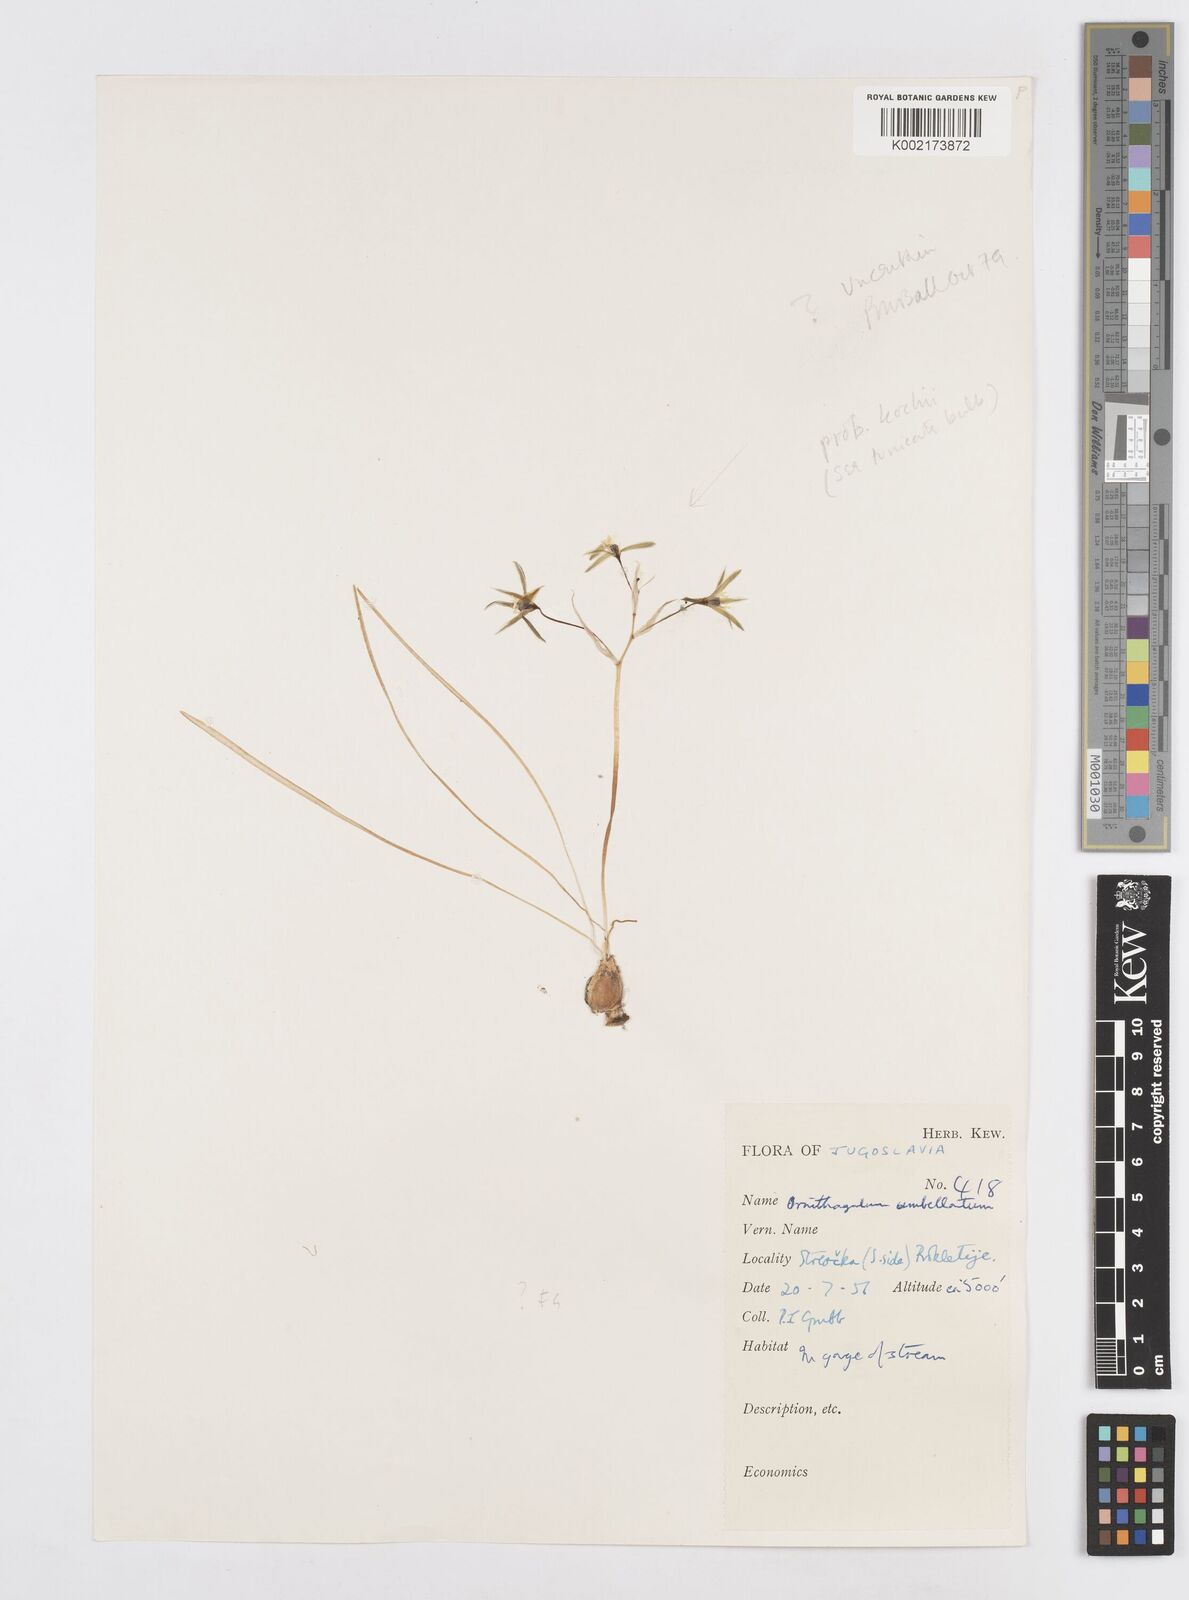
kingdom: Plantae
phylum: Tracheophyta
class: Liliopsida
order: Asparagales
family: Asparagaceae
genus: Ornithogalum
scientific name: Ornithogalum orthophyllum
